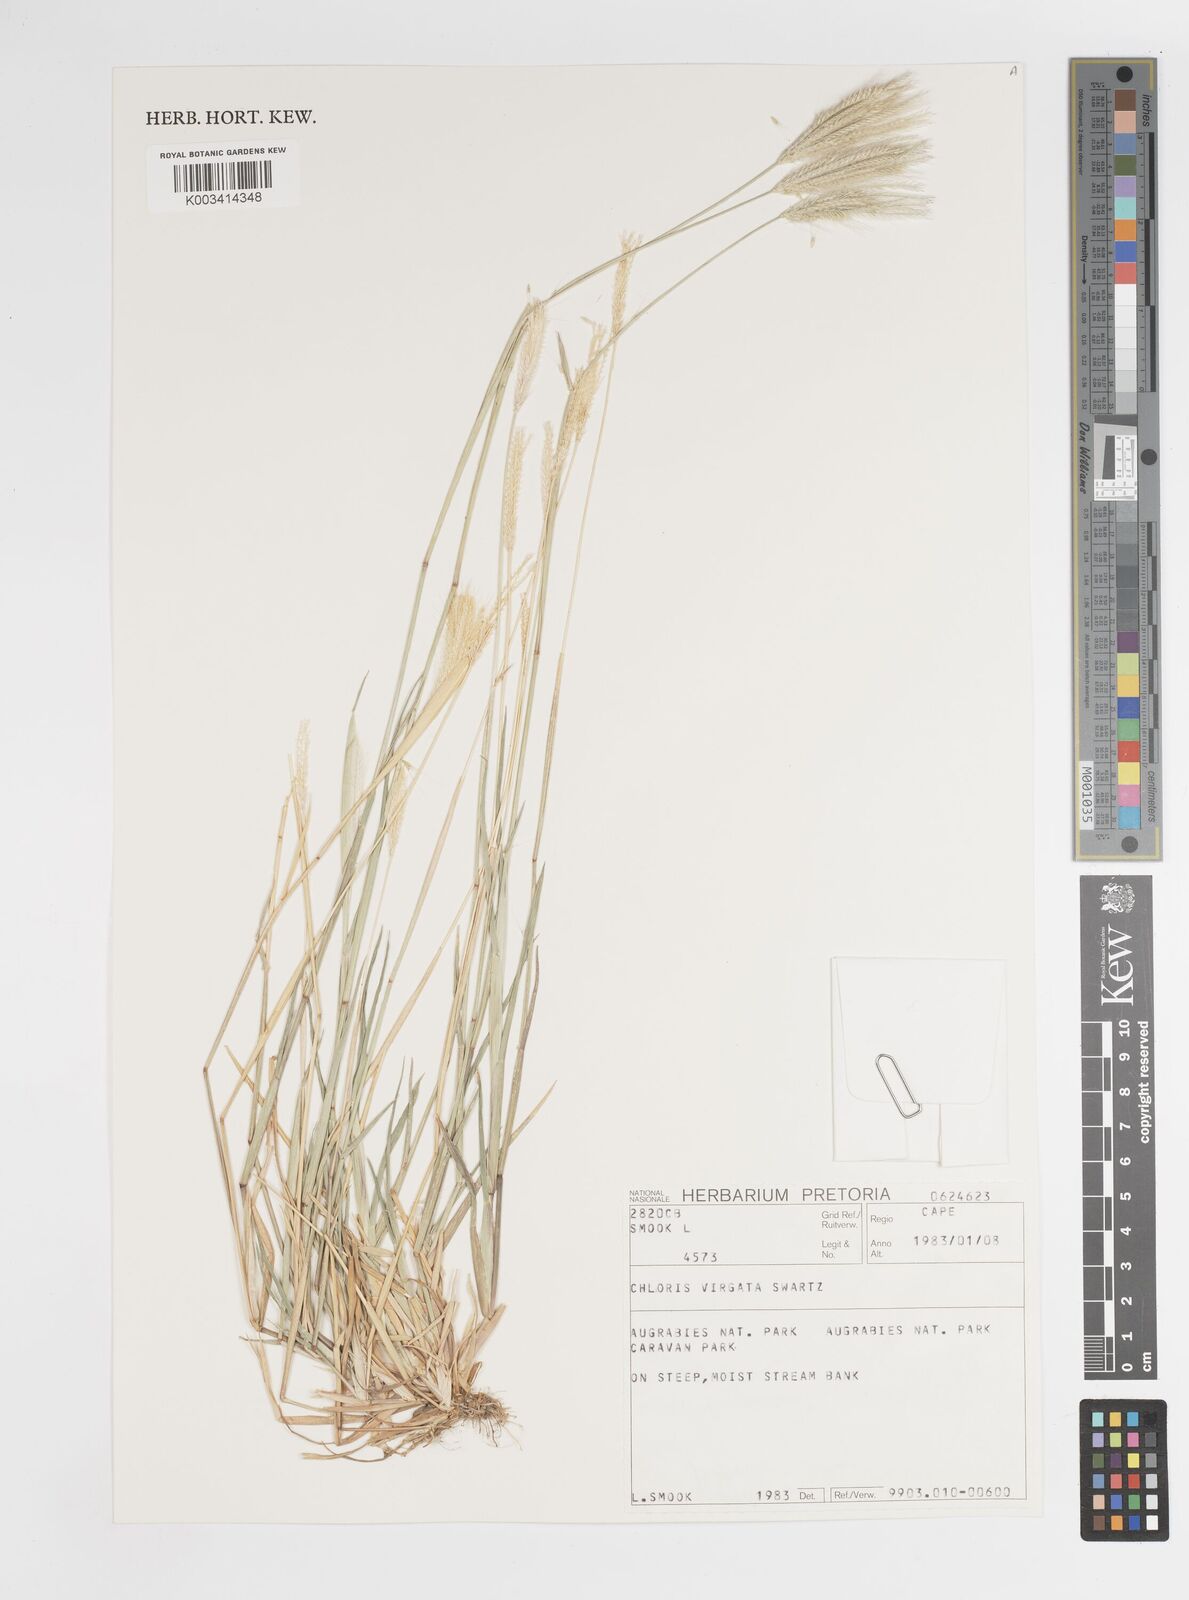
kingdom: Plantae
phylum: Tracheophyta
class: Liliopsida
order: Poales
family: Poaceae
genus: Chloris
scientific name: Chloris virgata
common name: Feathery rhodes-grass
